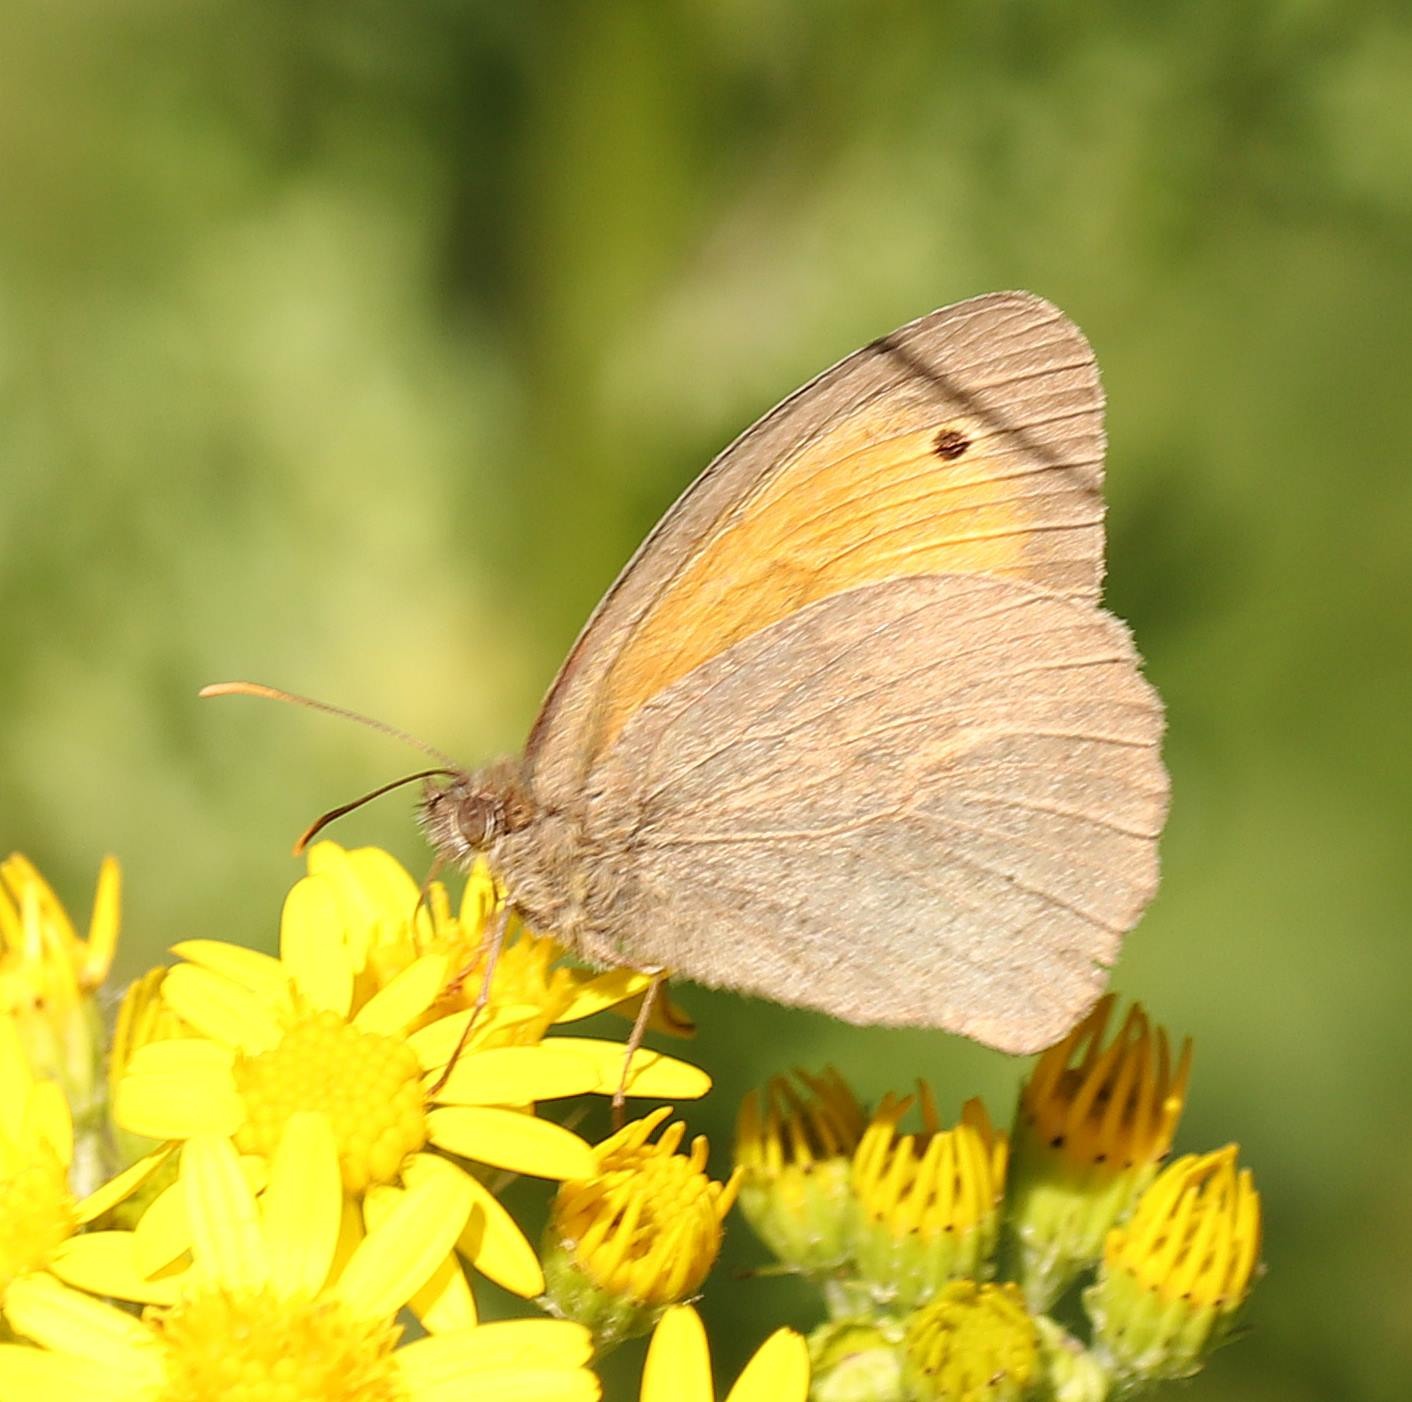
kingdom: Animalia
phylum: Arthropoda
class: Insecta
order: Lepidoptera
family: Nymphalidae
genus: Maniola
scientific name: Maniola jurtina
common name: Græsrandøje
